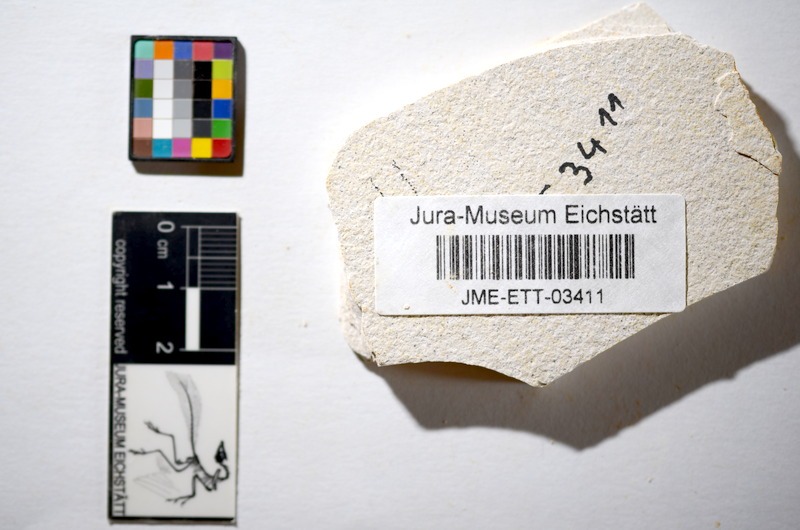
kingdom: Animalia
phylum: Chordata
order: Salmoniformes
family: Orthogonikleithridae
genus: Orthogonikleithrus
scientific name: Orthogonikleithrus hoelli
